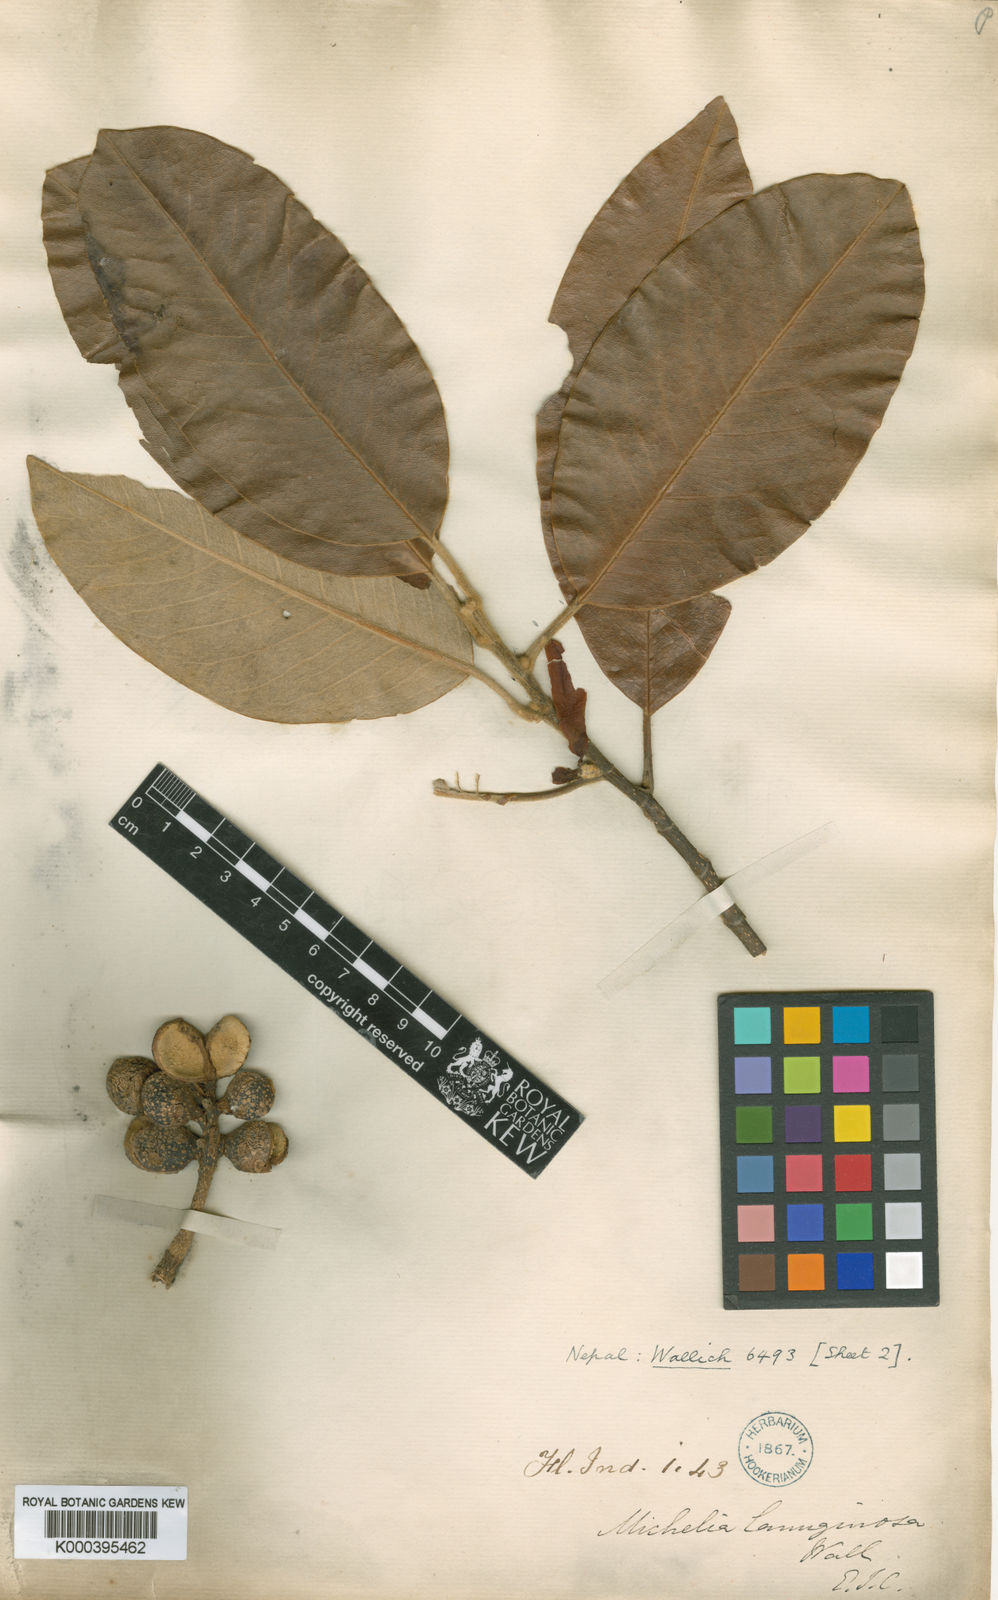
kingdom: Plantae
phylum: Tracheophyta
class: Magnoliopsida
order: Magnoliales
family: Magnoliaceae
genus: Magnolia
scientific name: Magnolia lanuginosa
